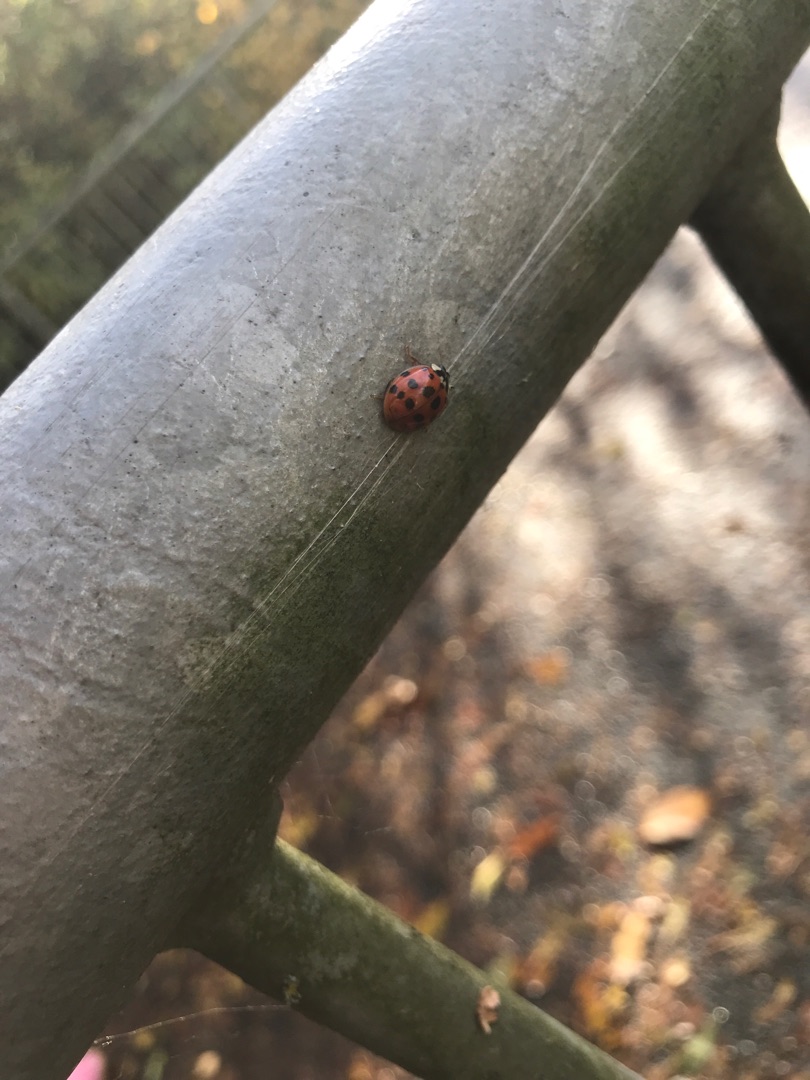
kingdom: Animalia
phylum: Arthropoda
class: Insecta
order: Coleoptera
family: Coccinellidae
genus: Harmonia
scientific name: Harmonia axyridis
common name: Harlekinmariehøne
